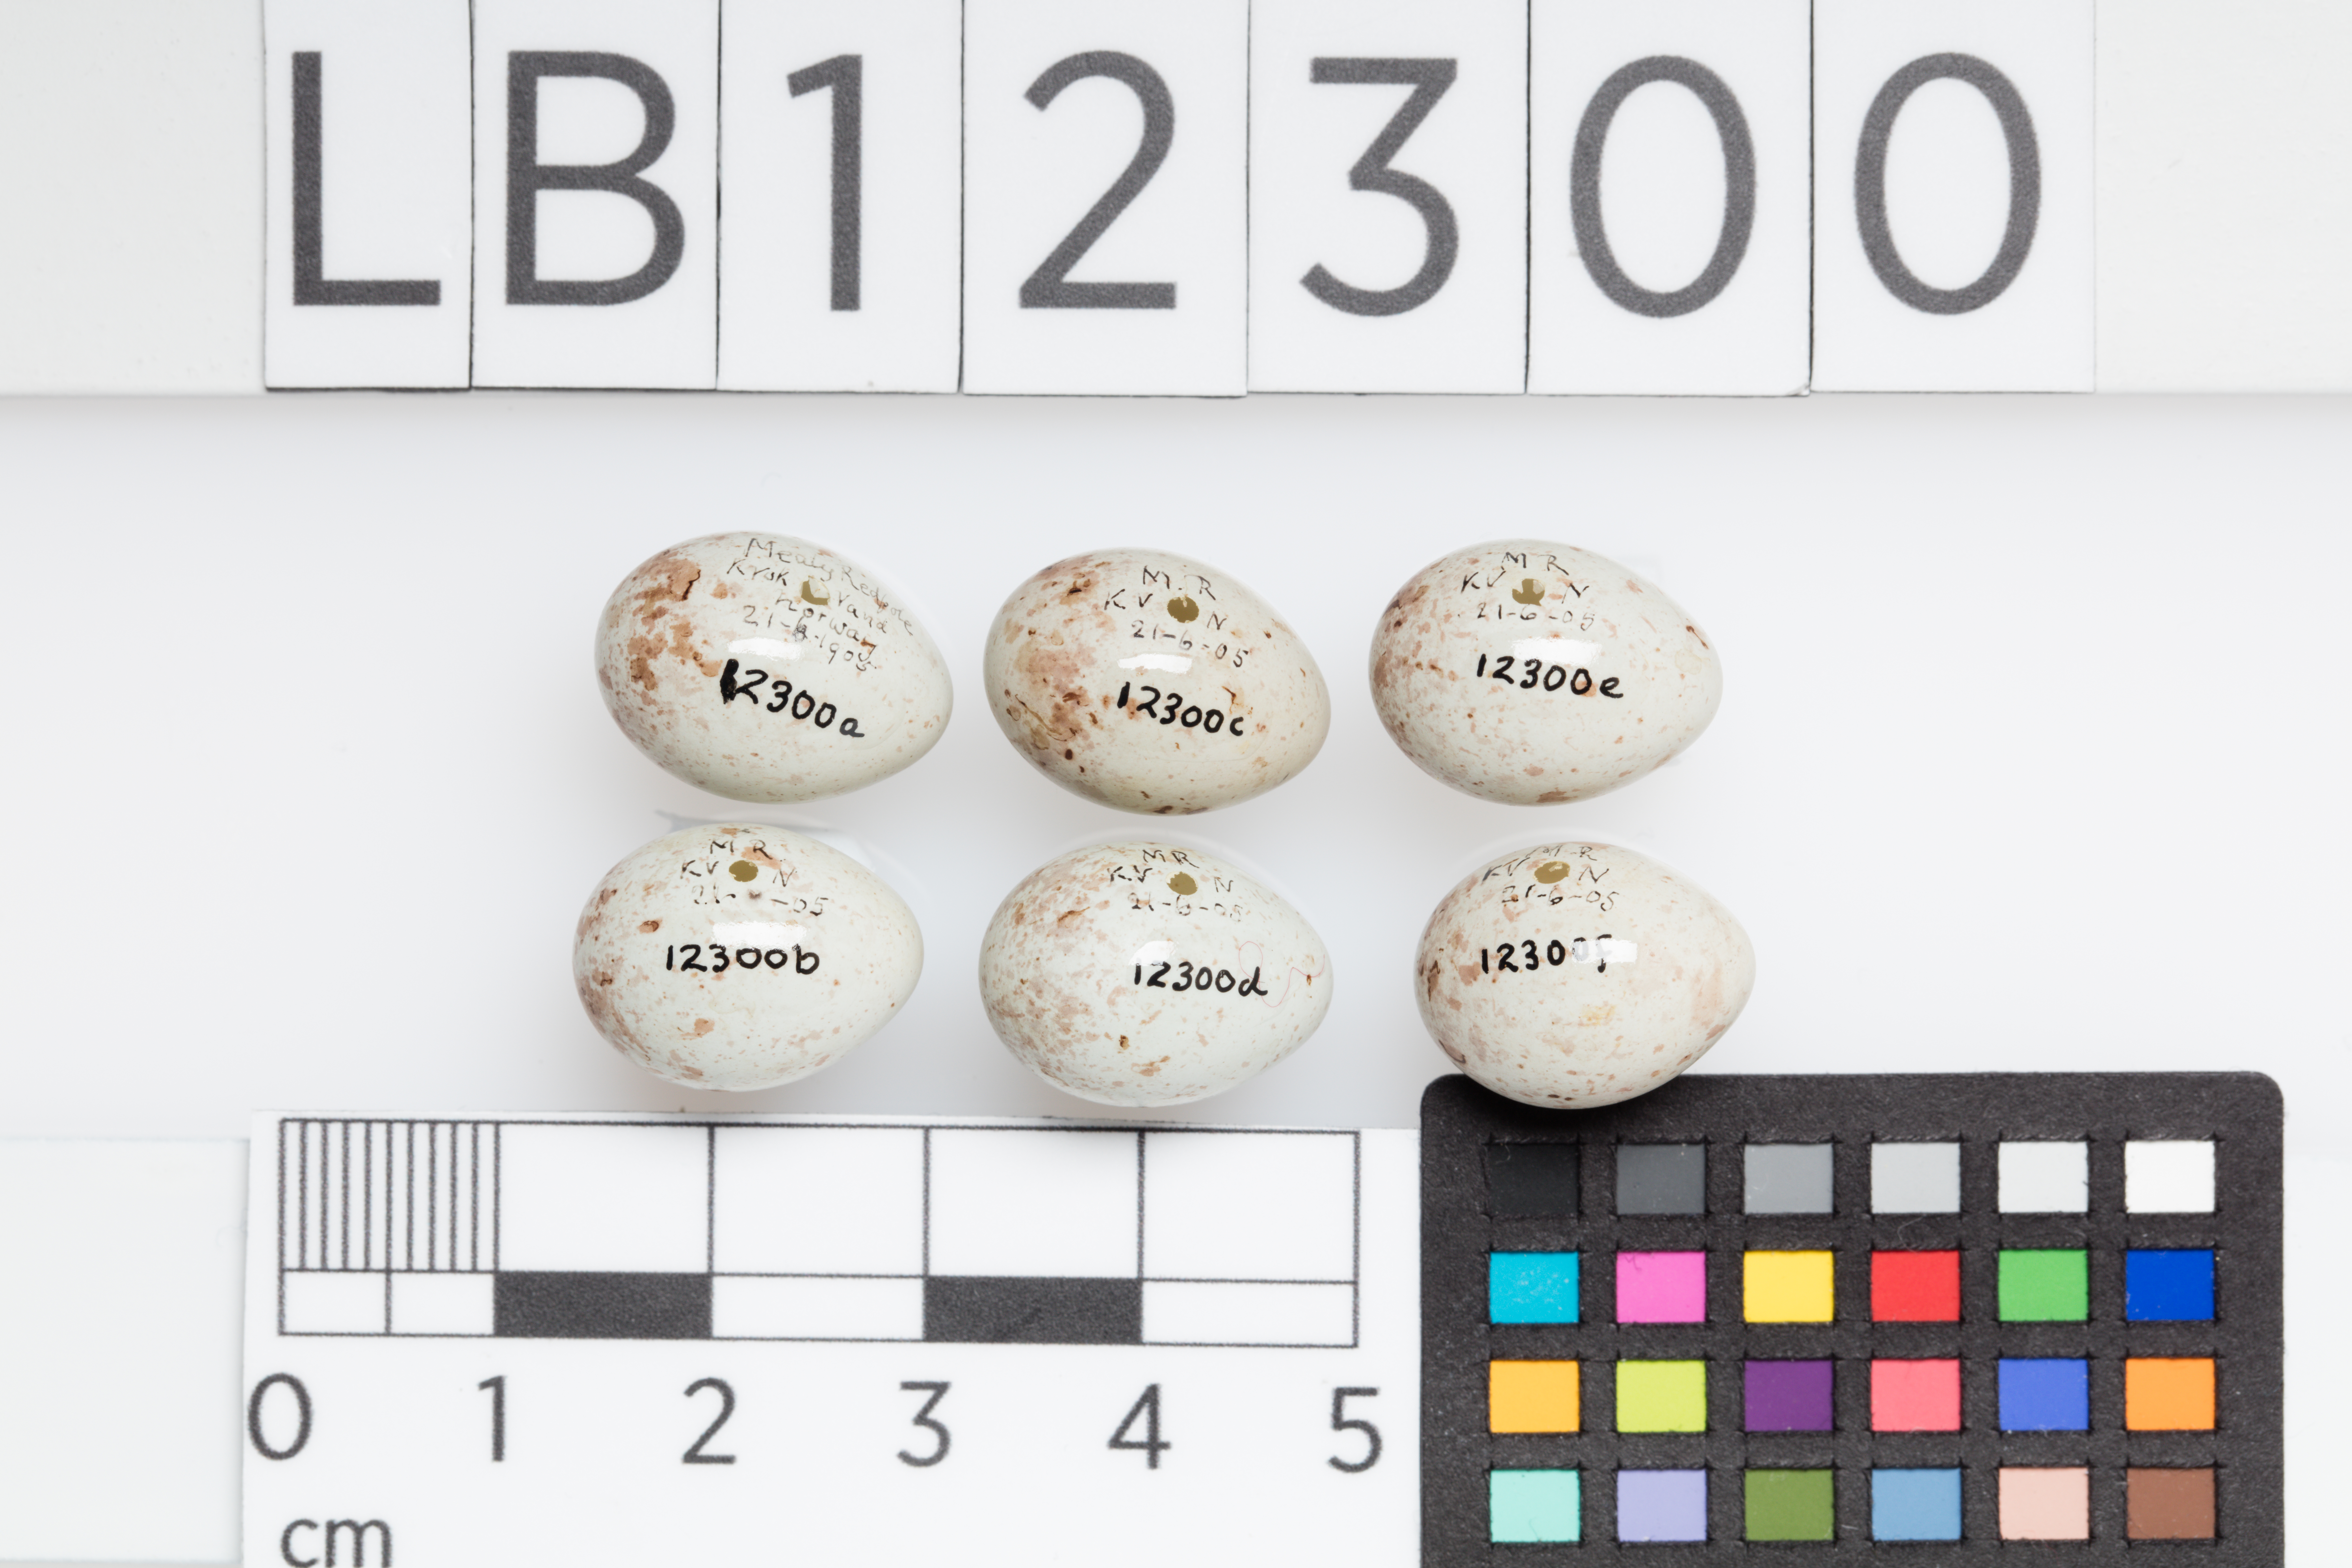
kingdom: Animalia
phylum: Chordata
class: Aves
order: Passeriformes
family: Fringillidae
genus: Acanthis
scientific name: Acanthis flammea
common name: Common redpoll
